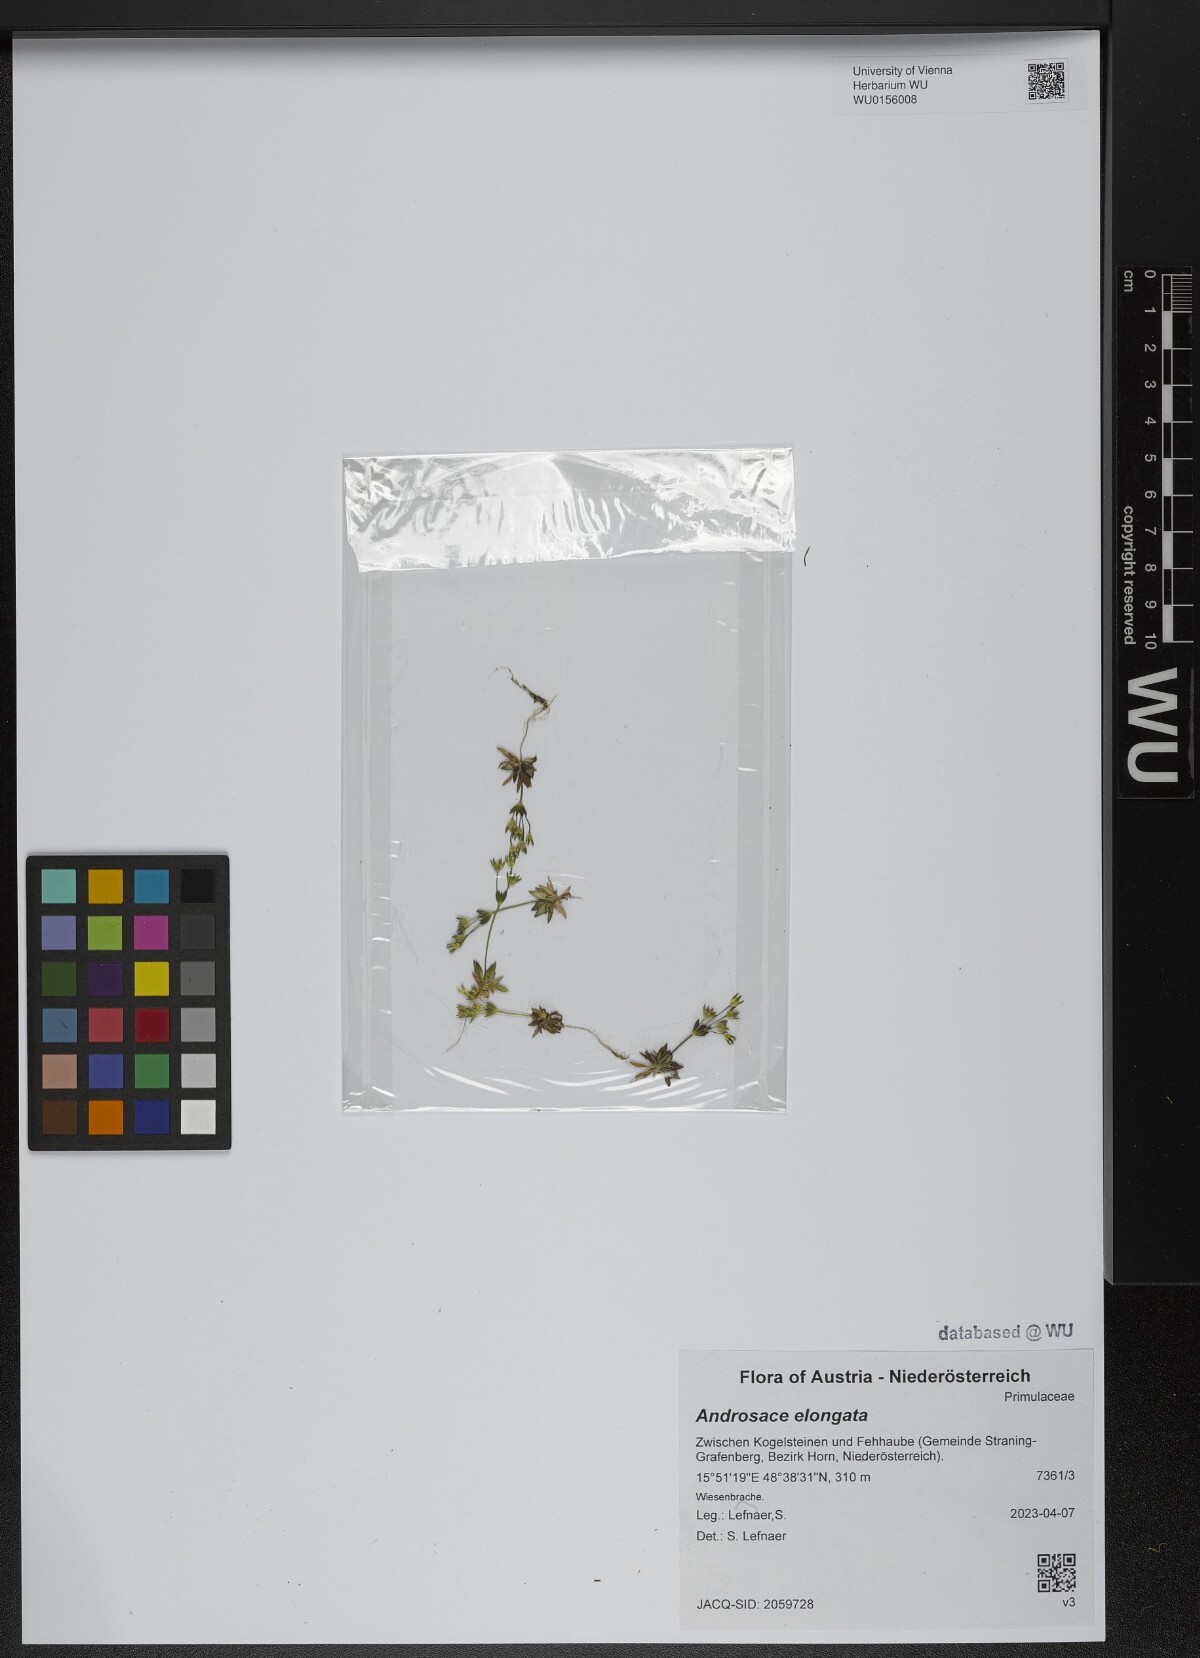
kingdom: Plantae
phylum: Tracheophyta
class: Magnoliopsida
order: Ericales
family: Primulaceae
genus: Androsace
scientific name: Androsace elongata
